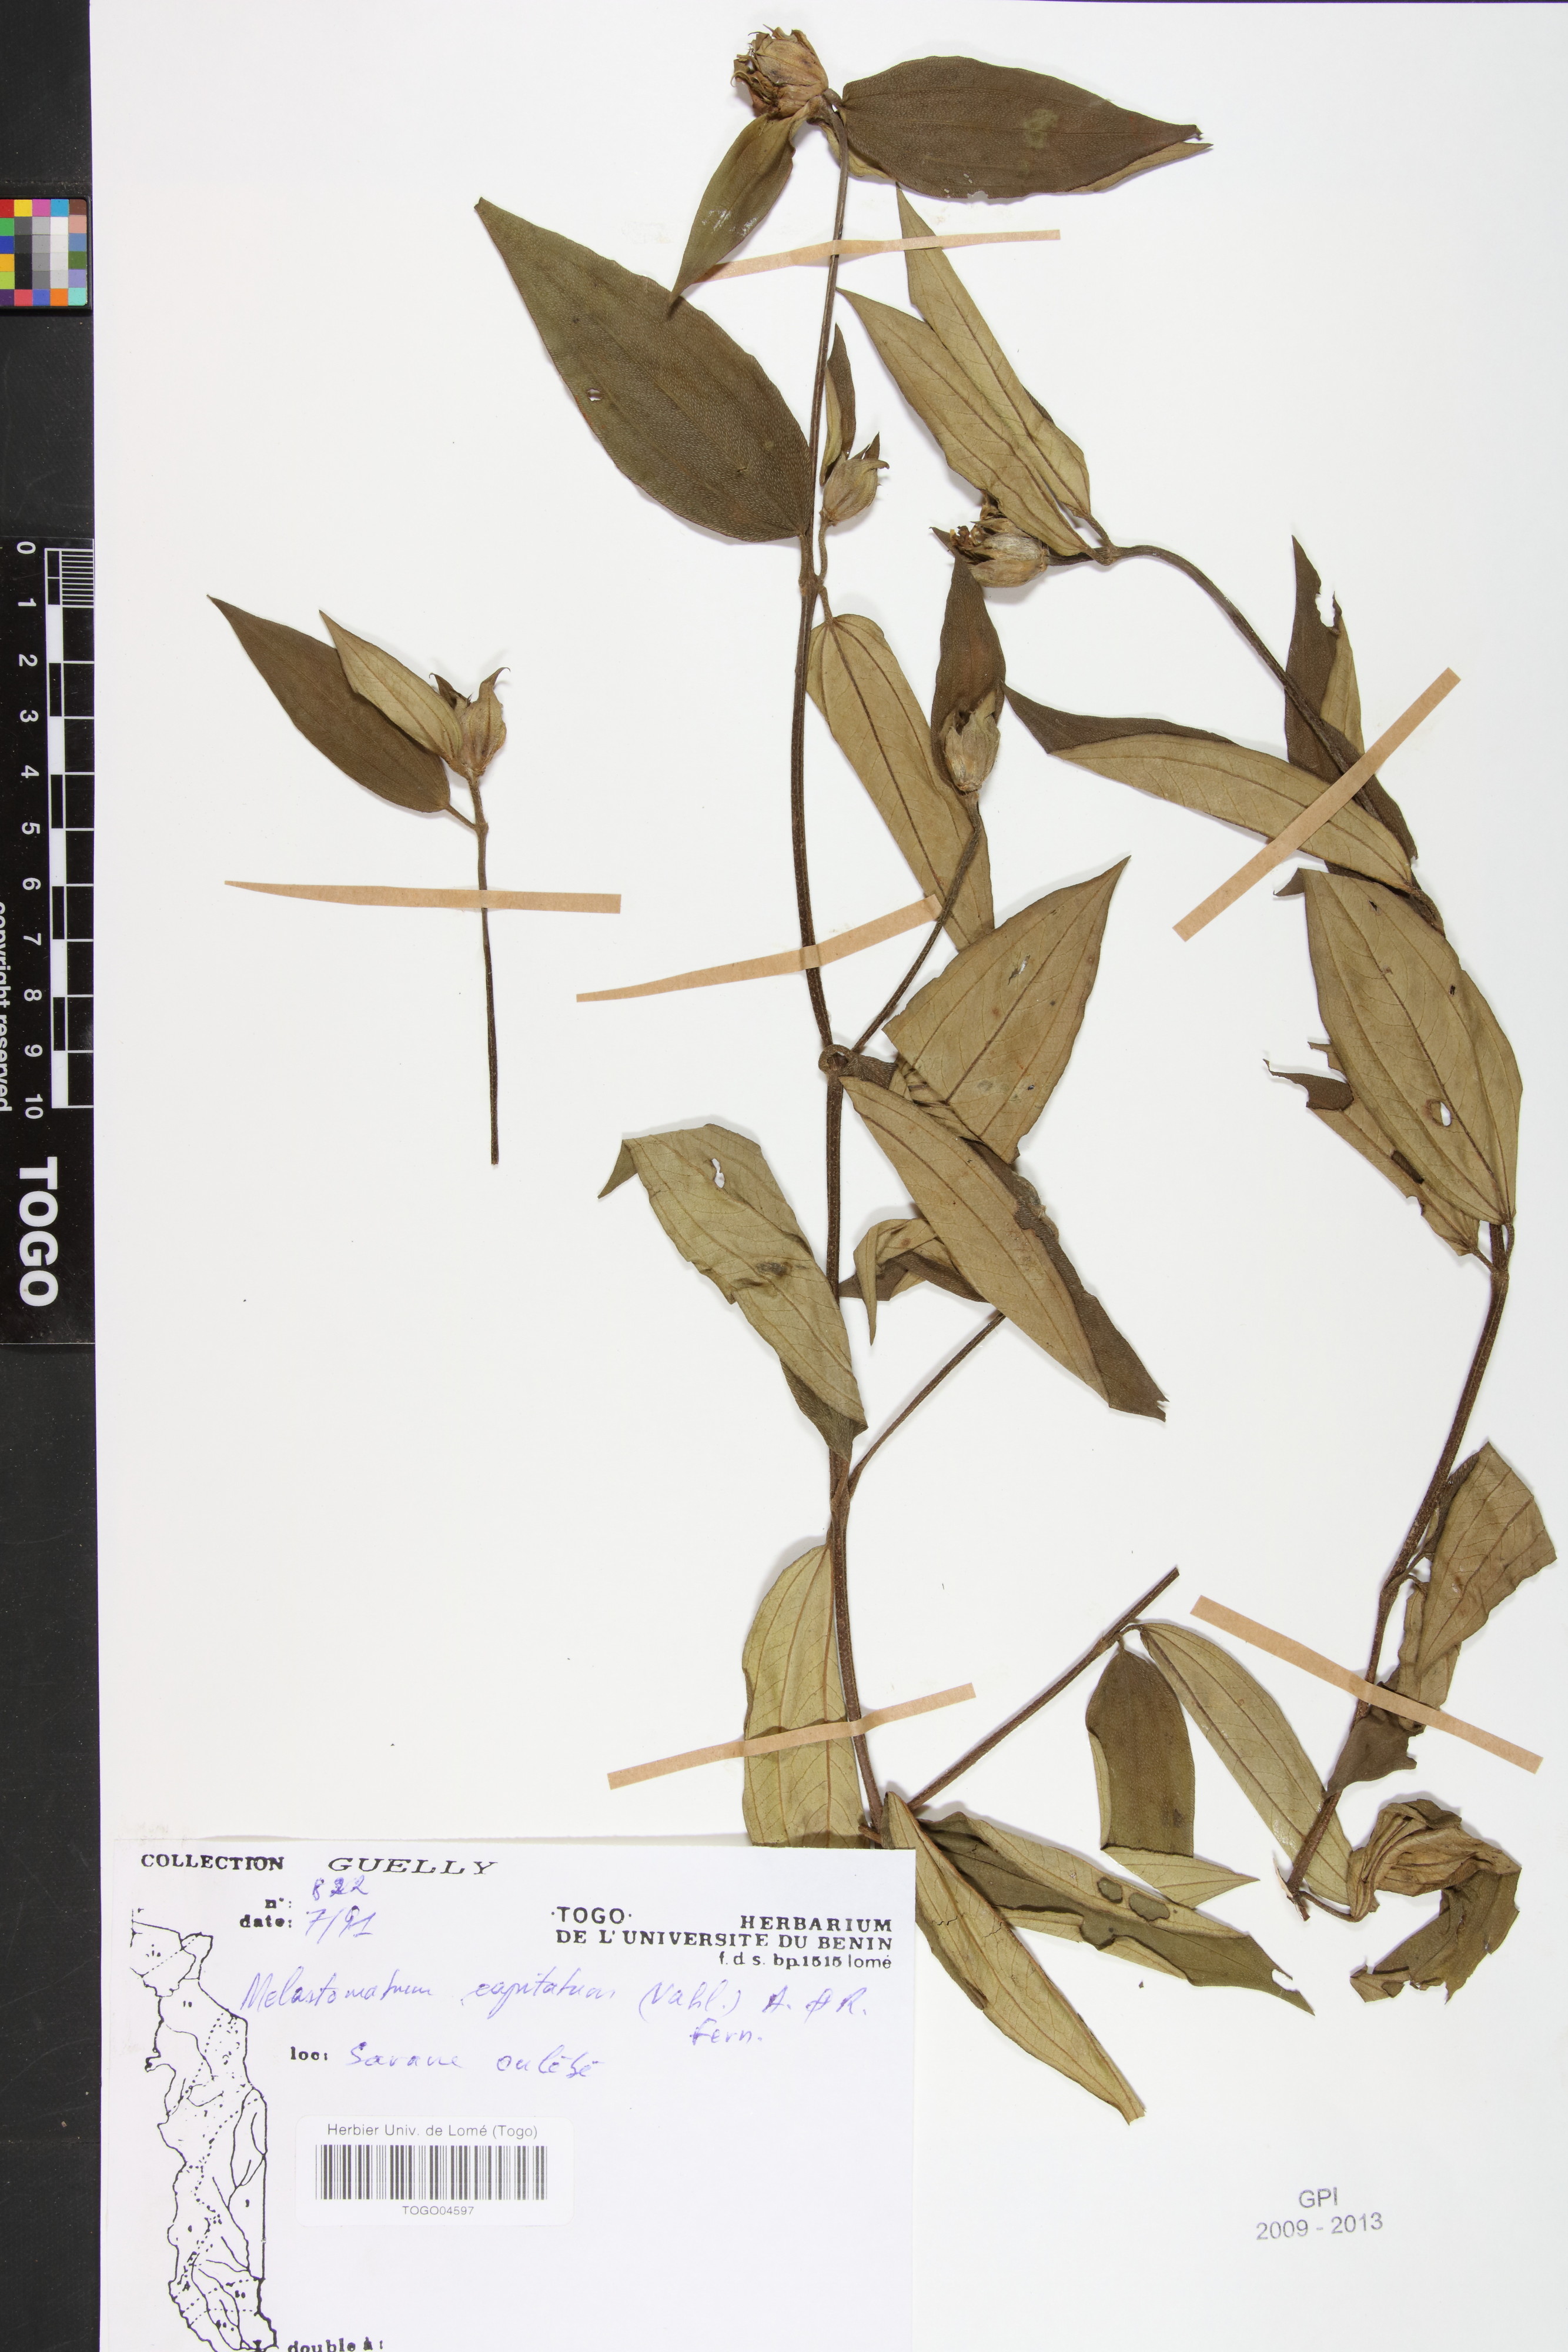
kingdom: Plantae
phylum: Tracheophyta
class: Magnoliopsida
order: Myrtales
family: Melastomataceae
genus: Melastomastrum
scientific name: Melastomastrum capitatum
